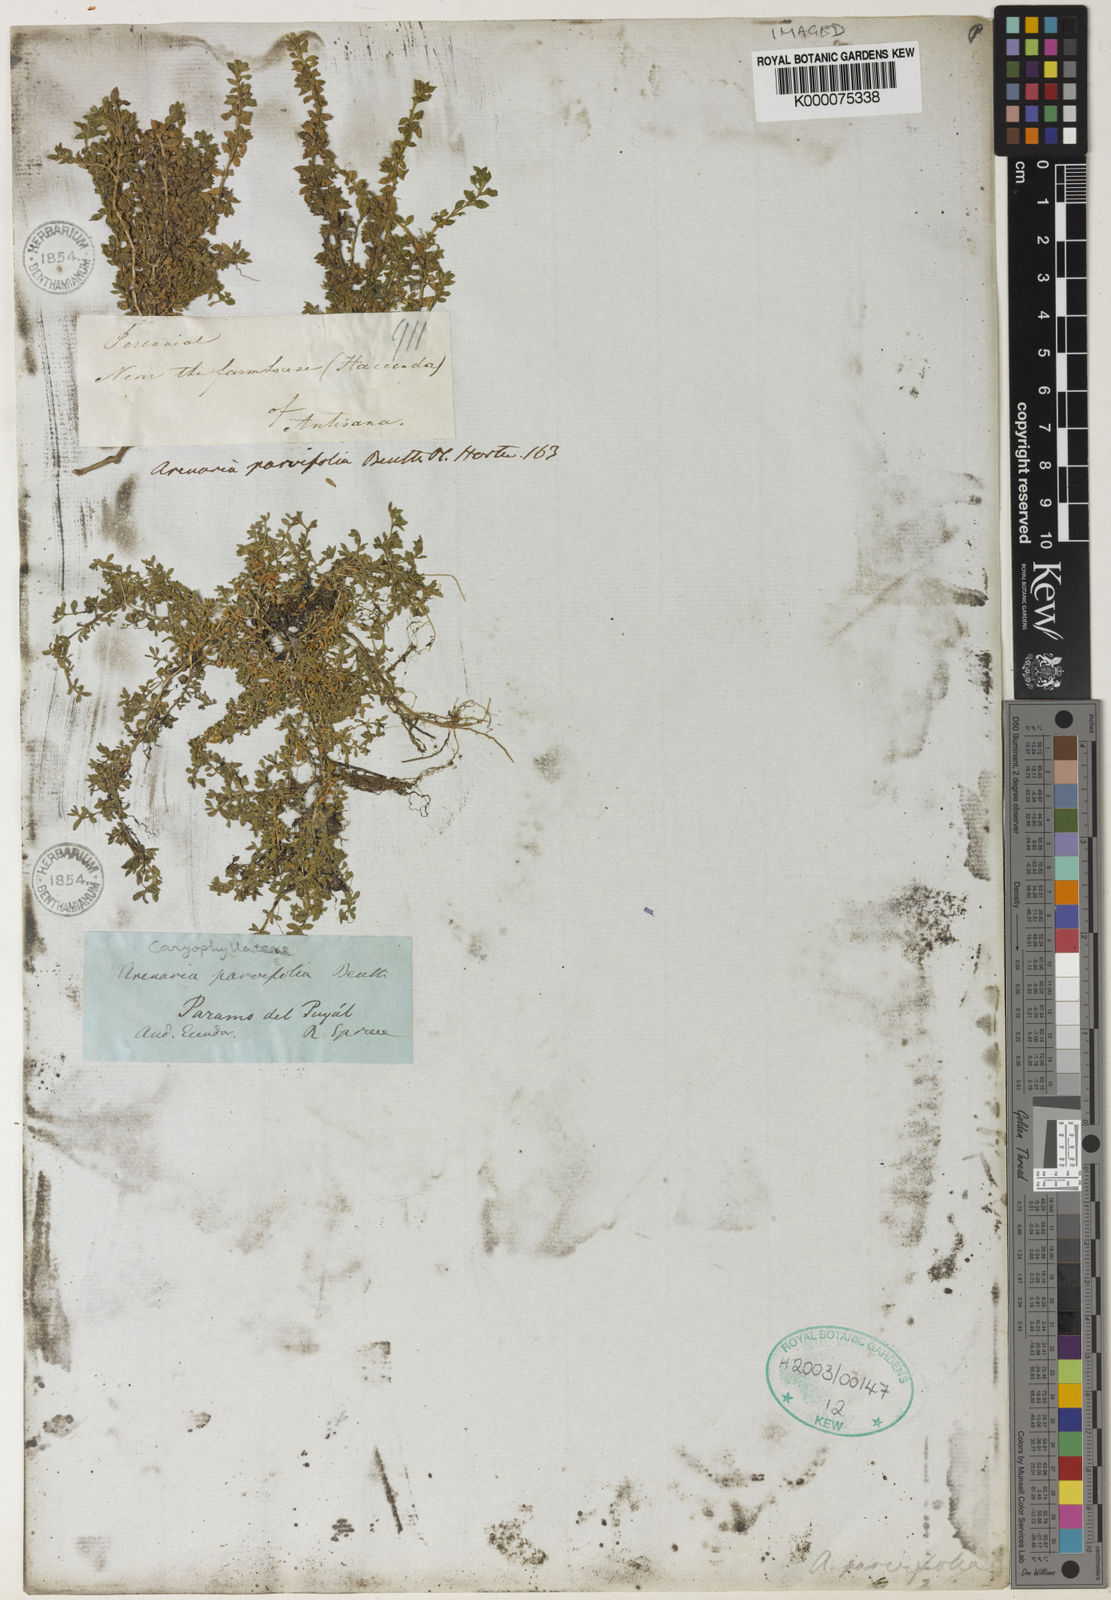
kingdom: Plantae
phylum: Tracheophyta
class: Magnoliopsida
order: Caryophyllales
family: Caryophyllaceae
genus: Arenaria
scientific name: Arenaria parvifolia
